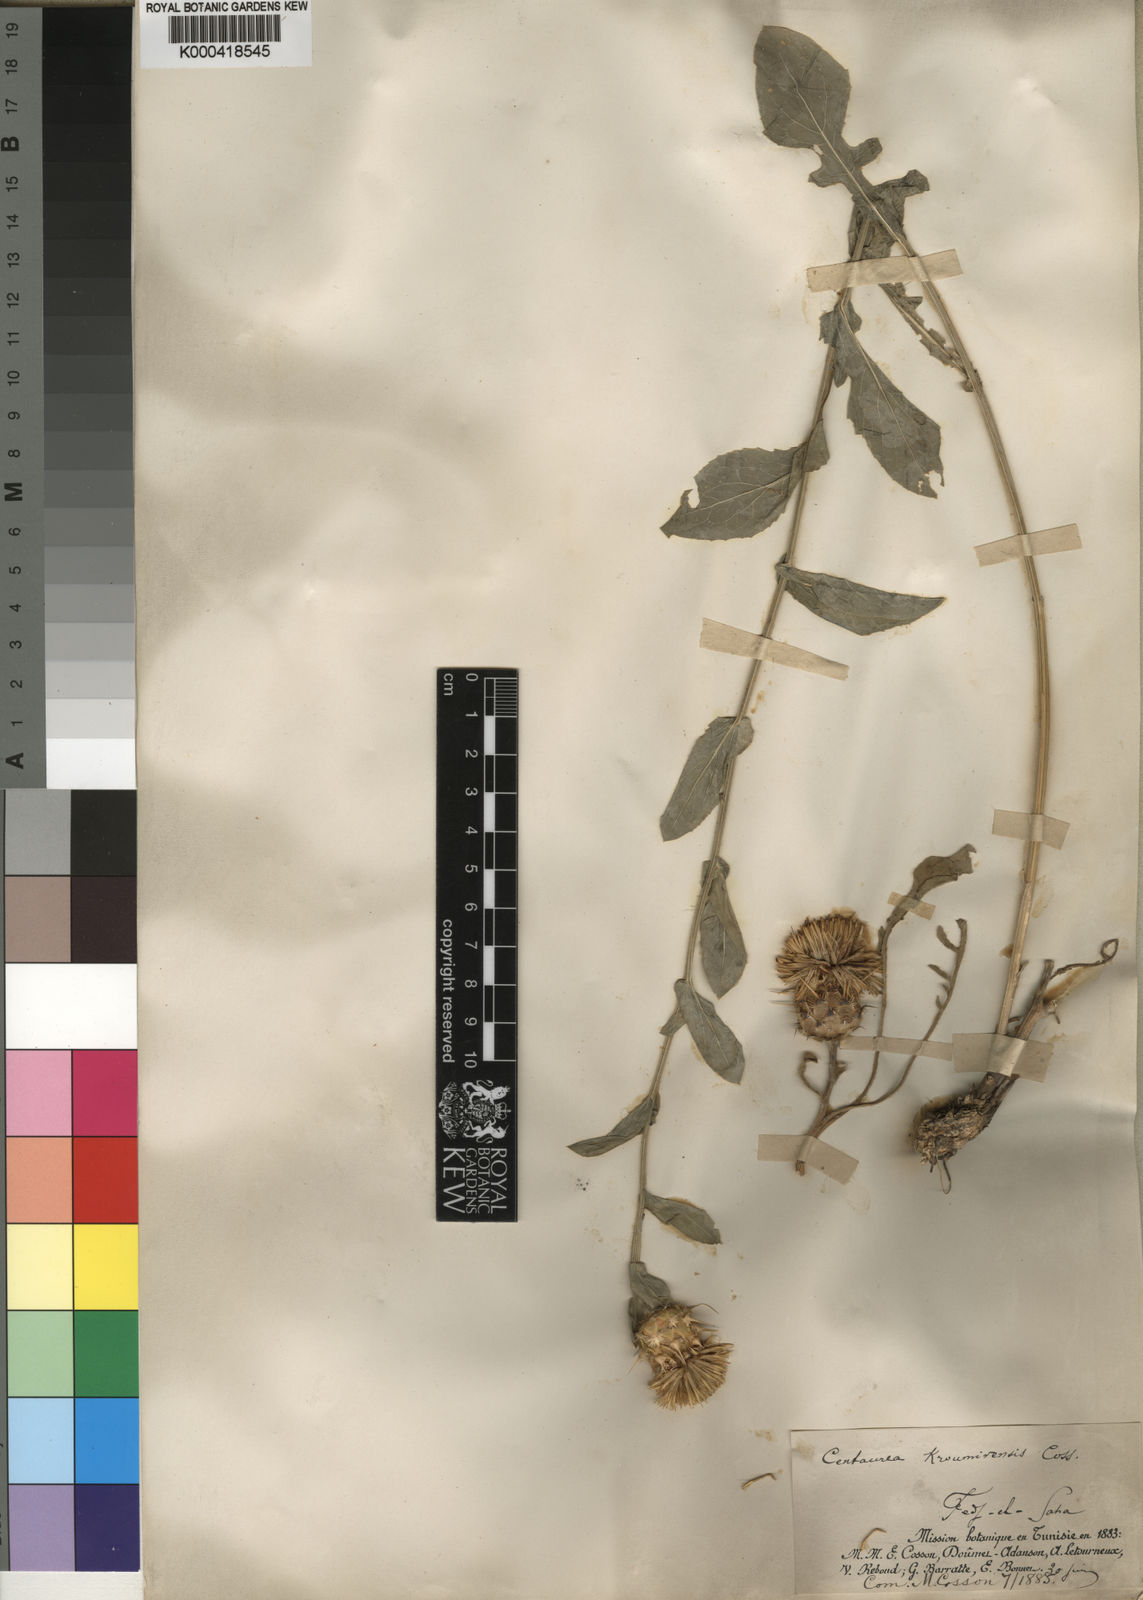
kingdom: Plantae
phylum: Tracheophyta
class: Magnoliopsida
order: Asterales
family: Asteraceae
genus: Centaurea
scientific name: Centaurea sicula
